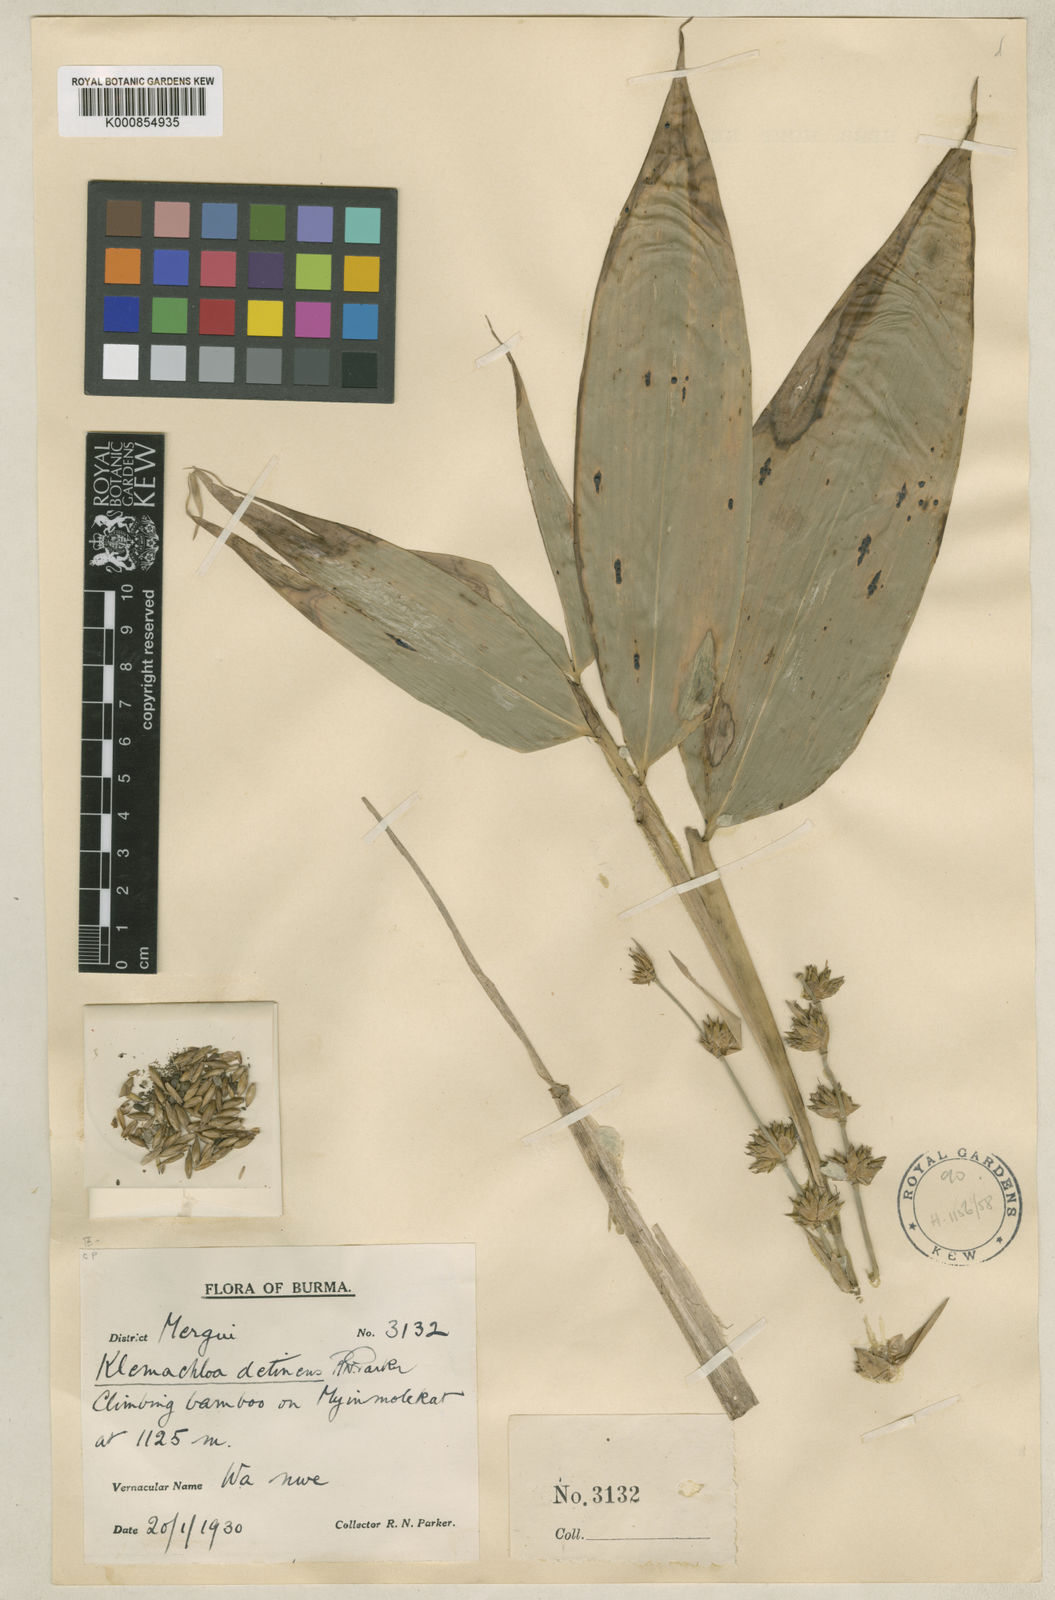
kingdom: Plantae
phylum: Tracheophyta
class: Liliopsida
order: Poales
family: Poaceae
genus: Dendrocalamus
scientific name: Dendrocalamus detinens
